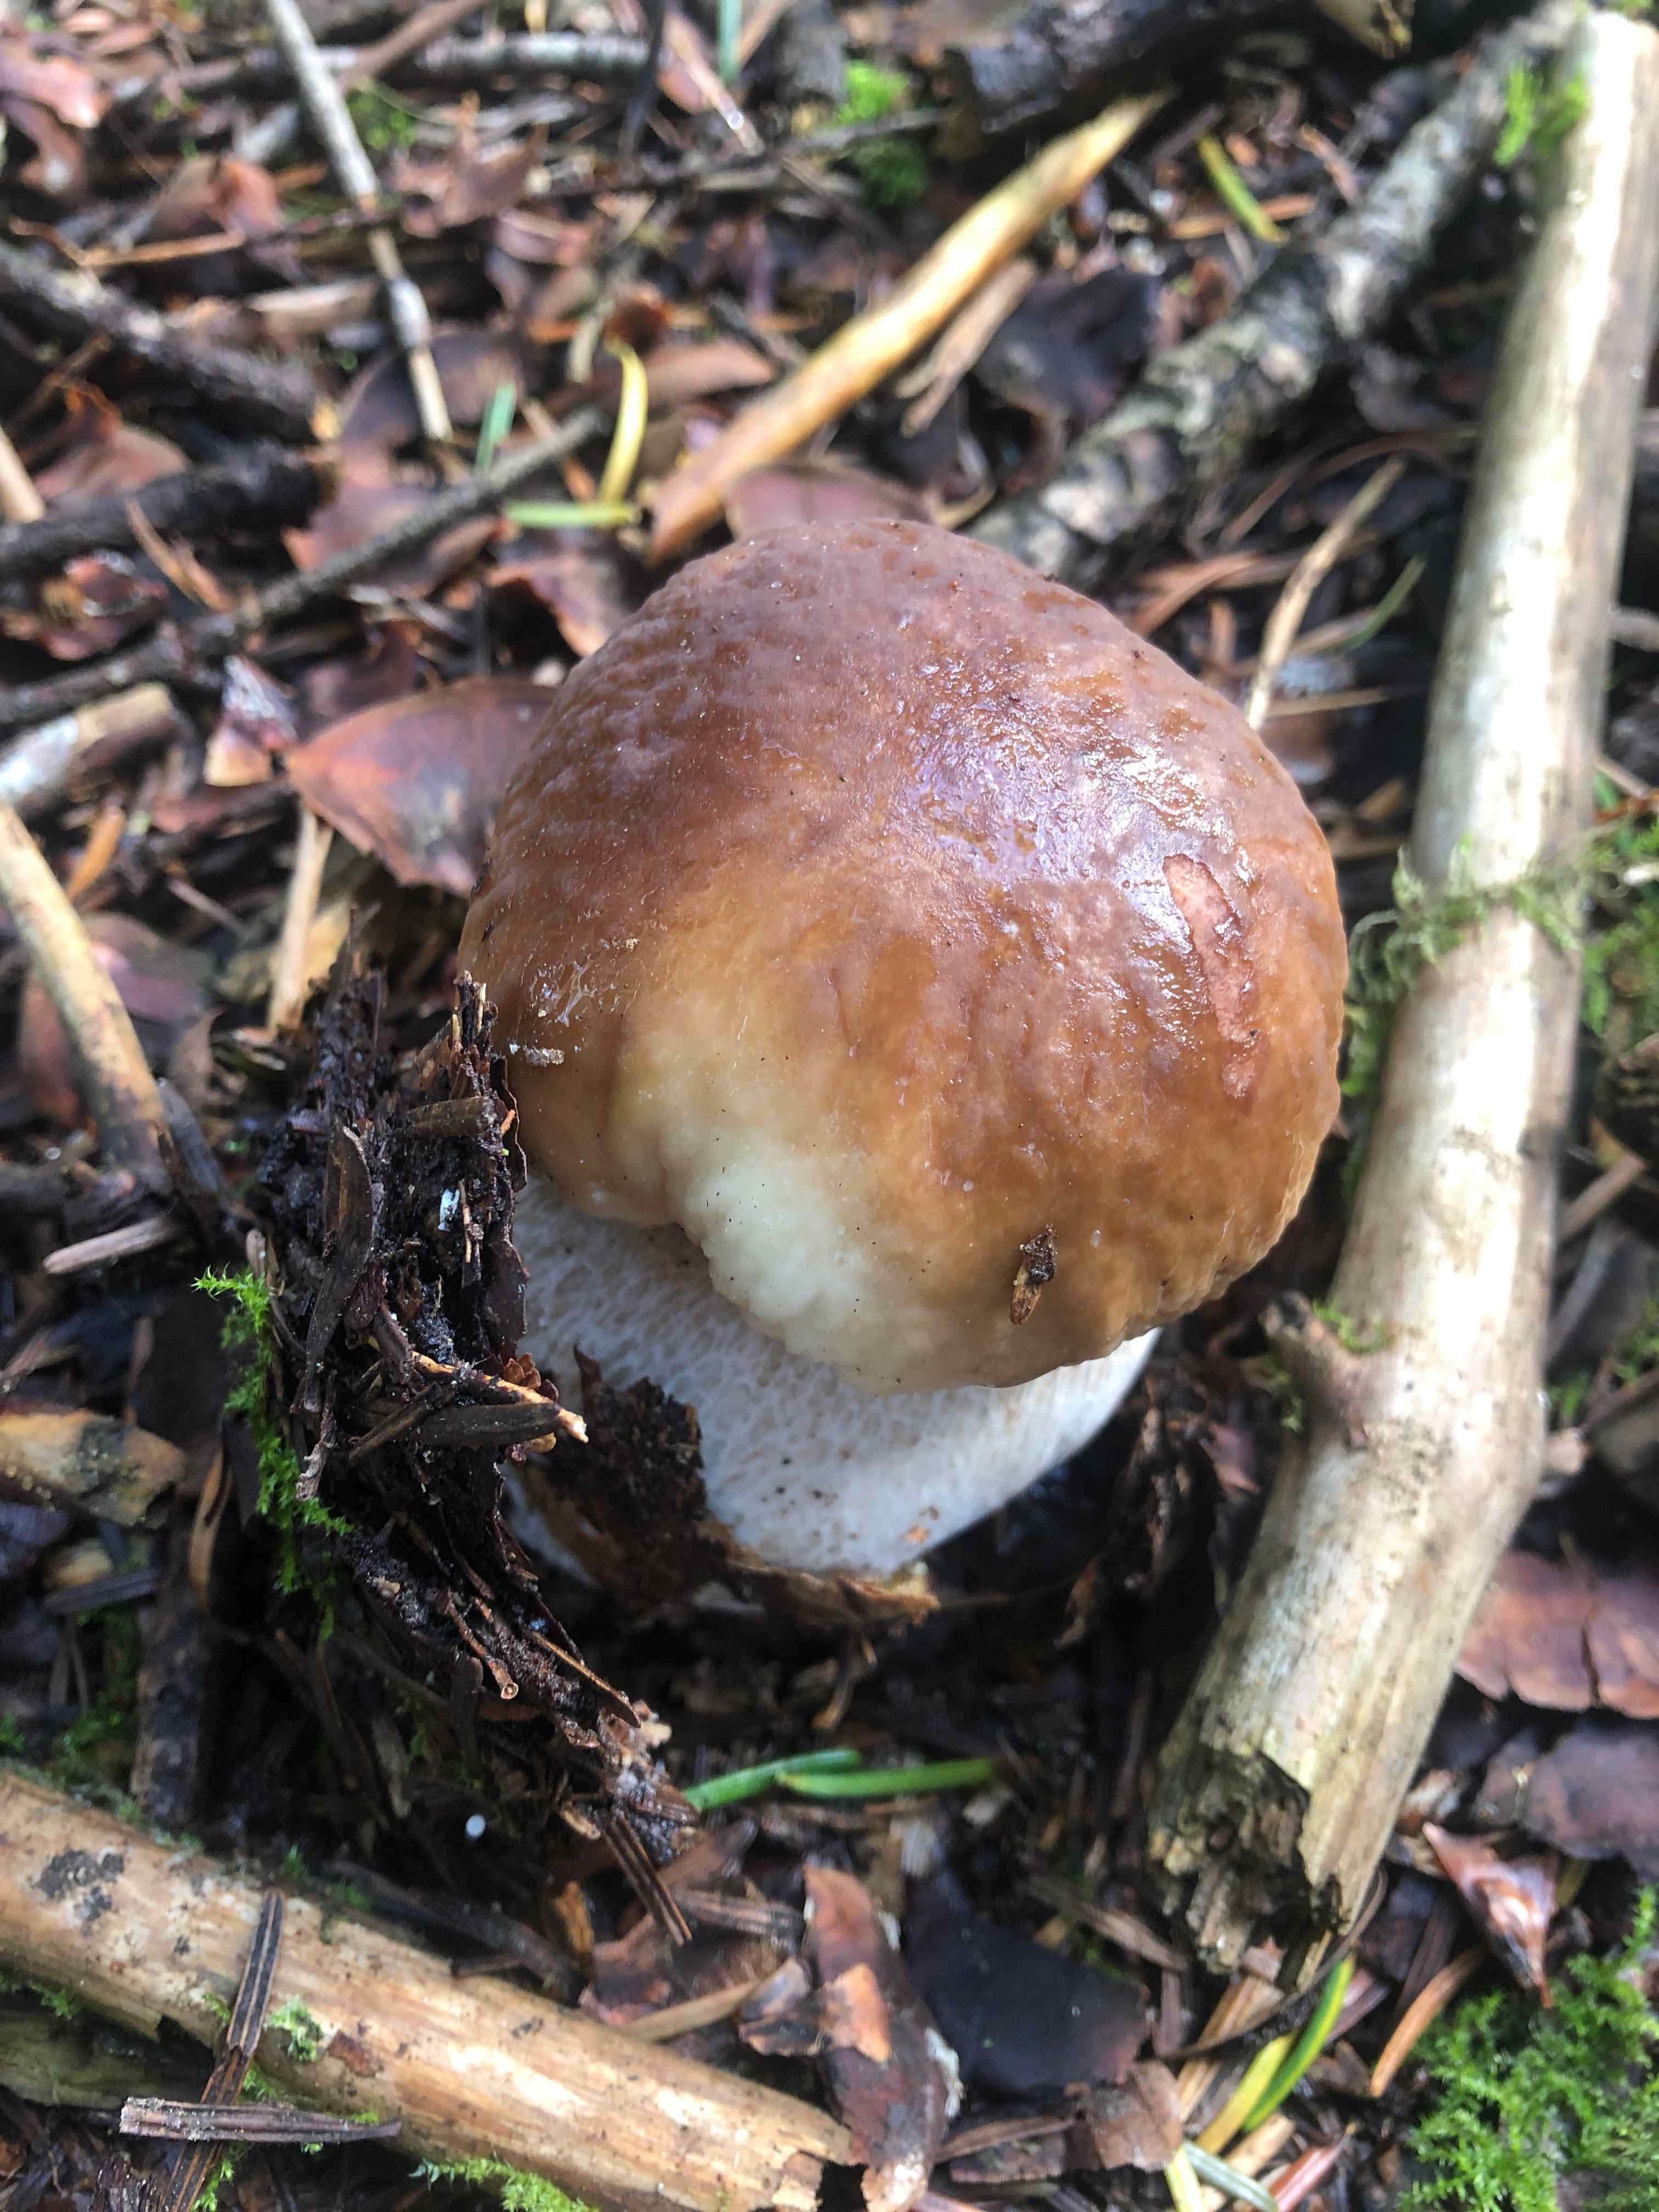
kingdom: Fungi
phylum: Basidiomycota
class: Agaricomycetes
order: Boletales
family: Boletaceae
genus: Boletus
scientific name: Boletus edulis
